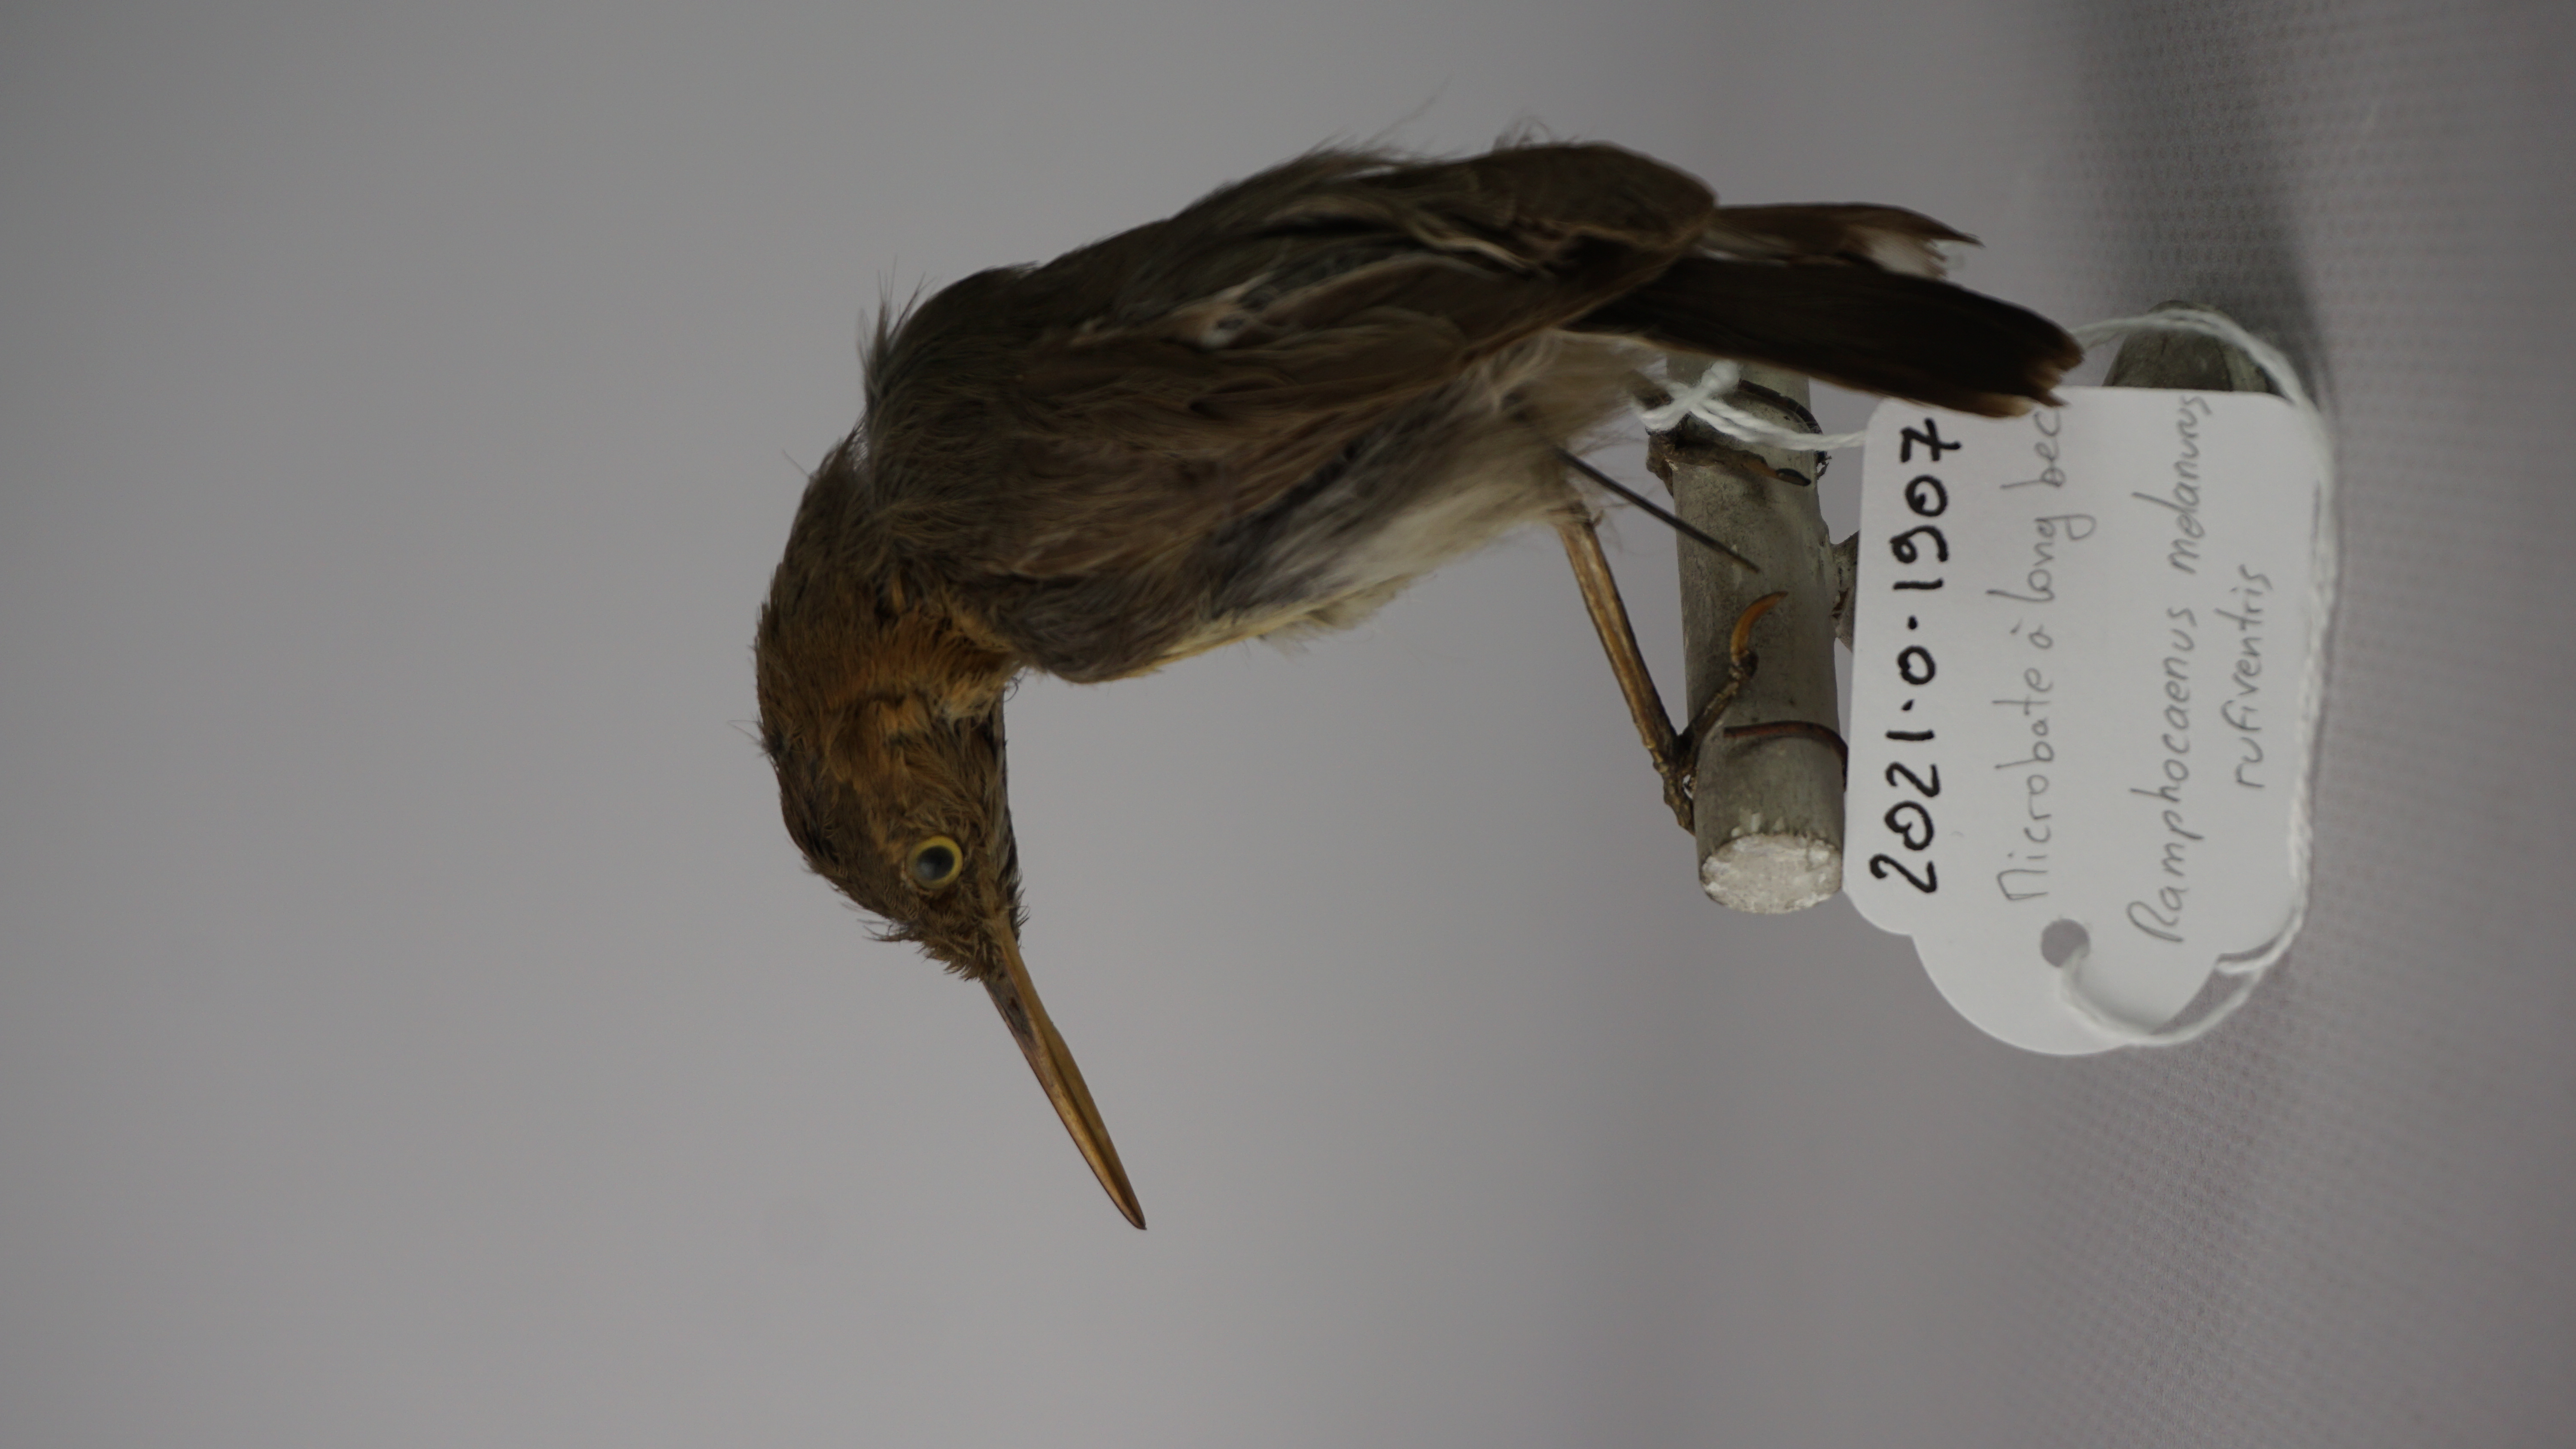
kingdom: Animalia
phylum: Chordata
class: Aves
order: Passeriformes
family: Polioptilidae
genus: Ramphocaenus
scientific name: Ramphocaenus melanurus
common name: Long-billed gnatwren
